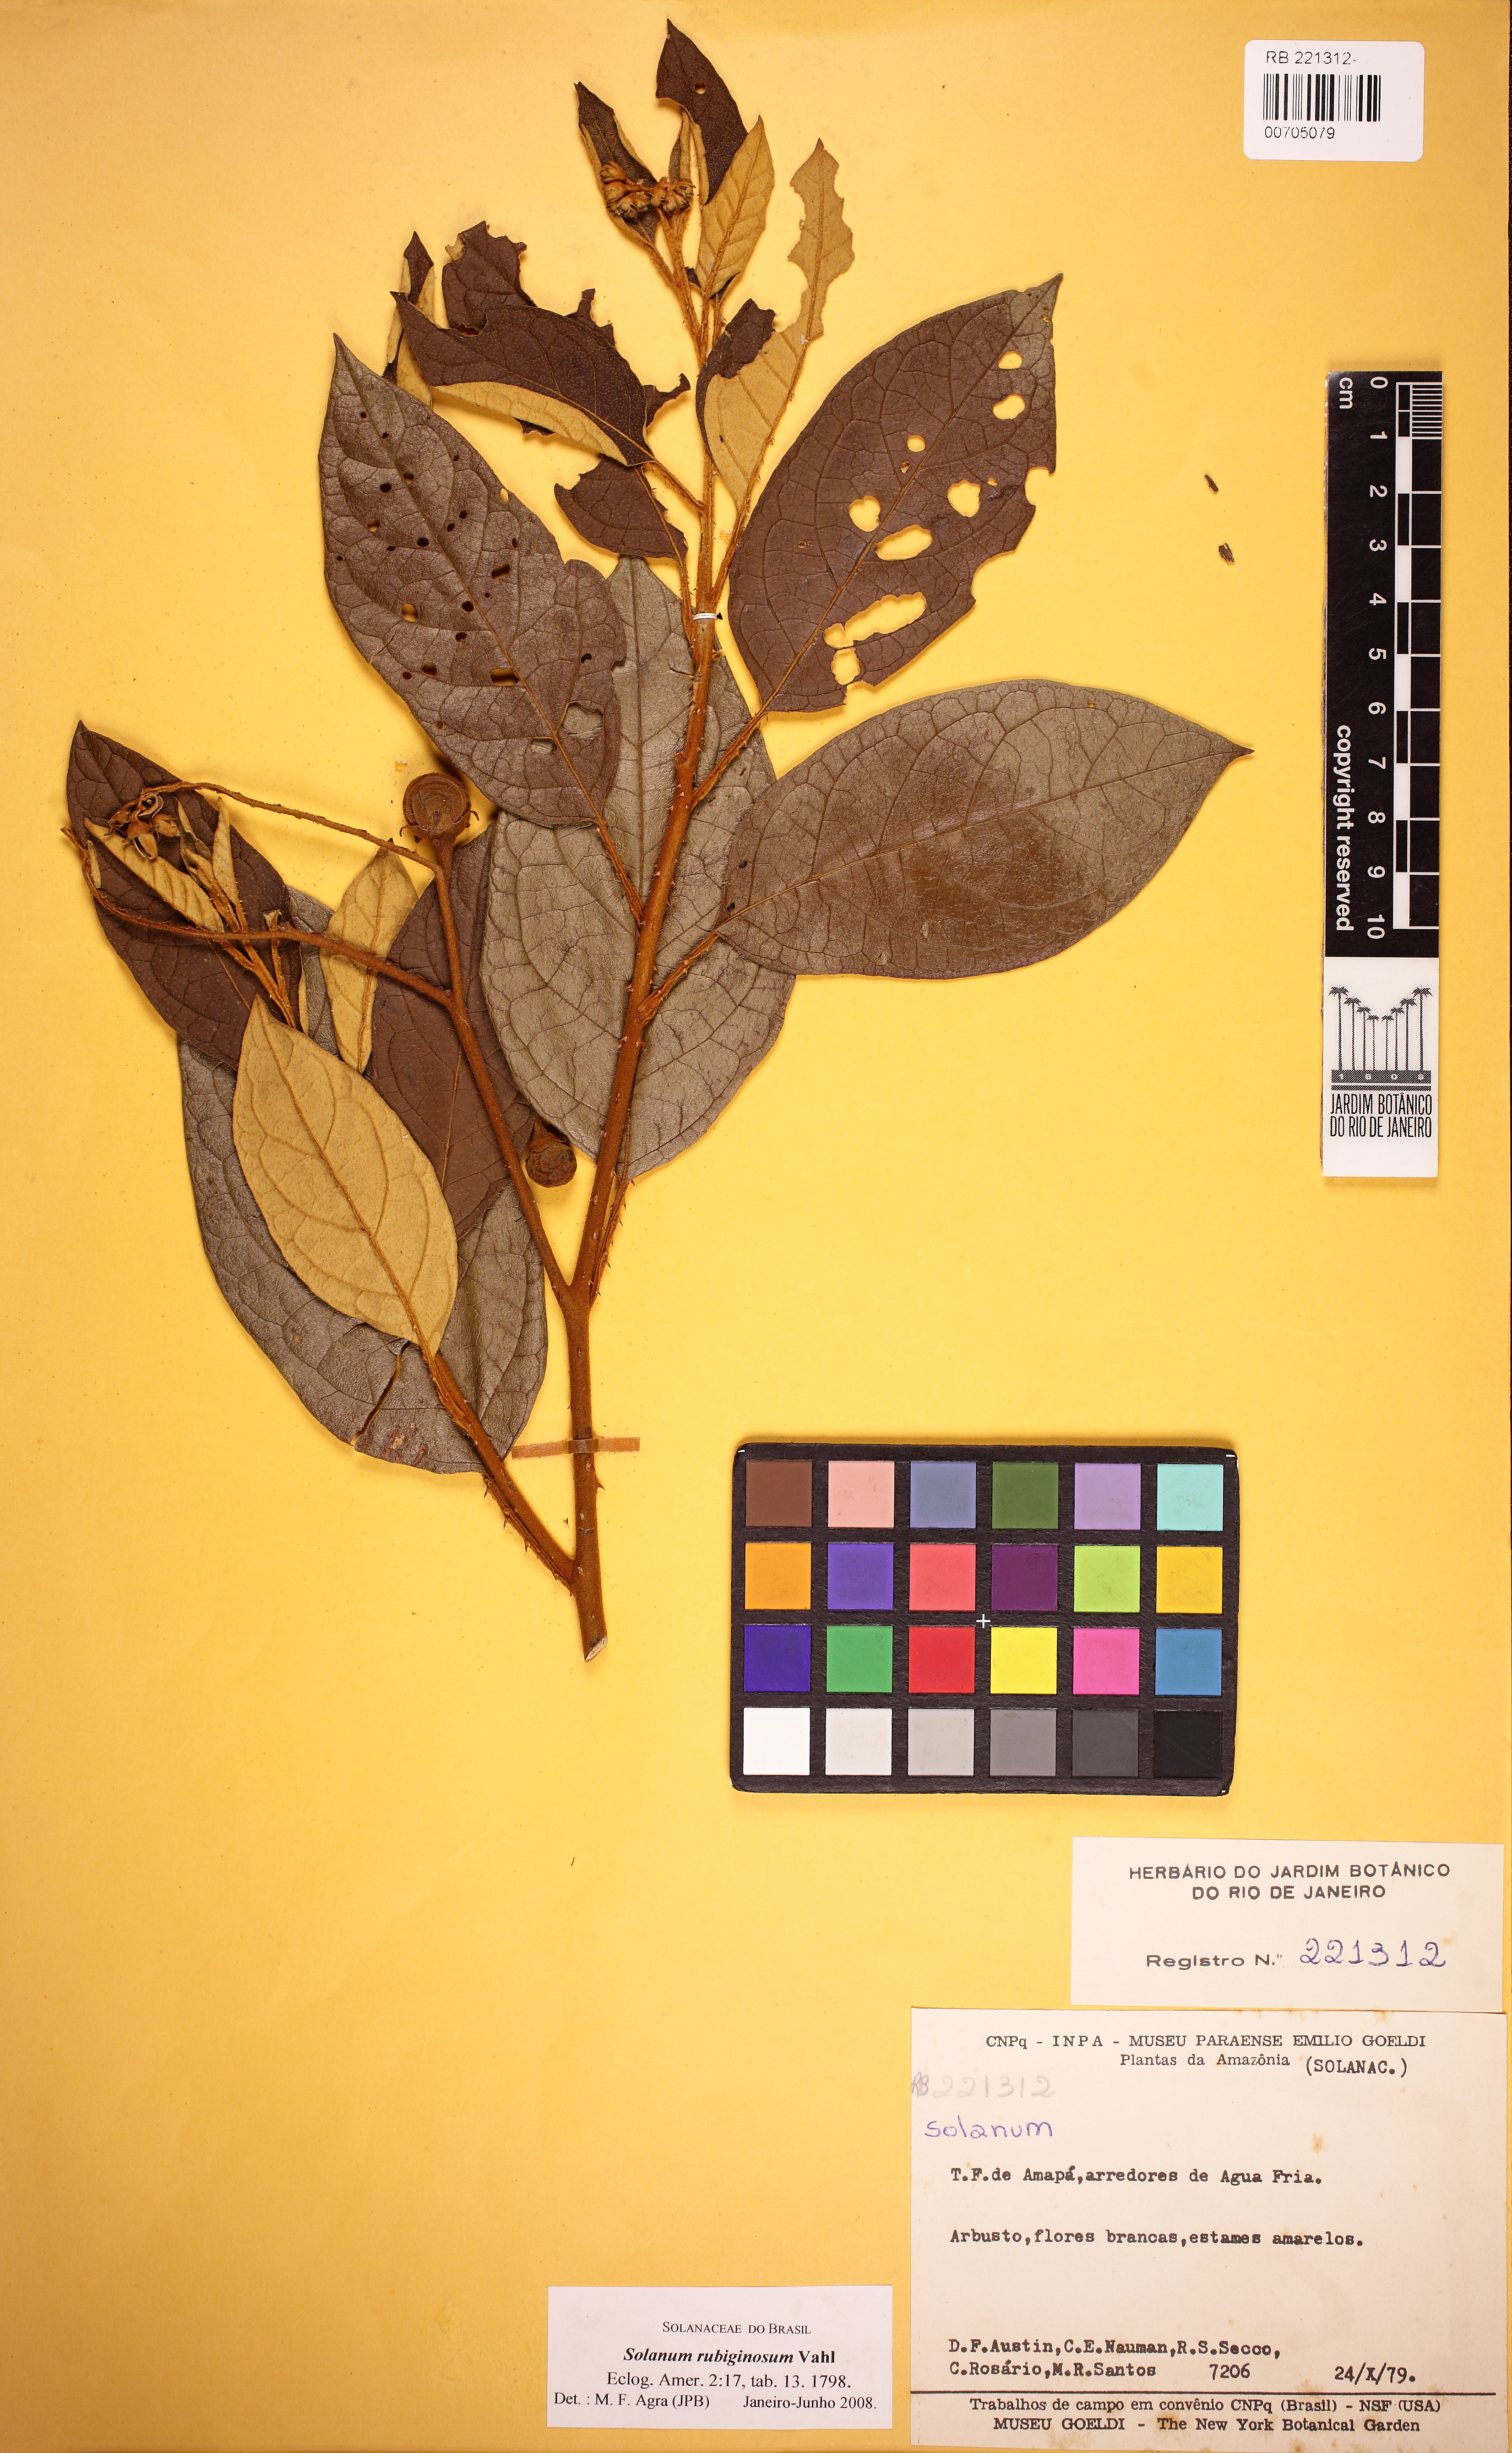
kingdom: Plantae
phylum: Tracheophyta
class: Magnoliopsida
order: Solanales
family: Solanaceae
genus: Solanum
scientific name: Solanum rubiginosum
